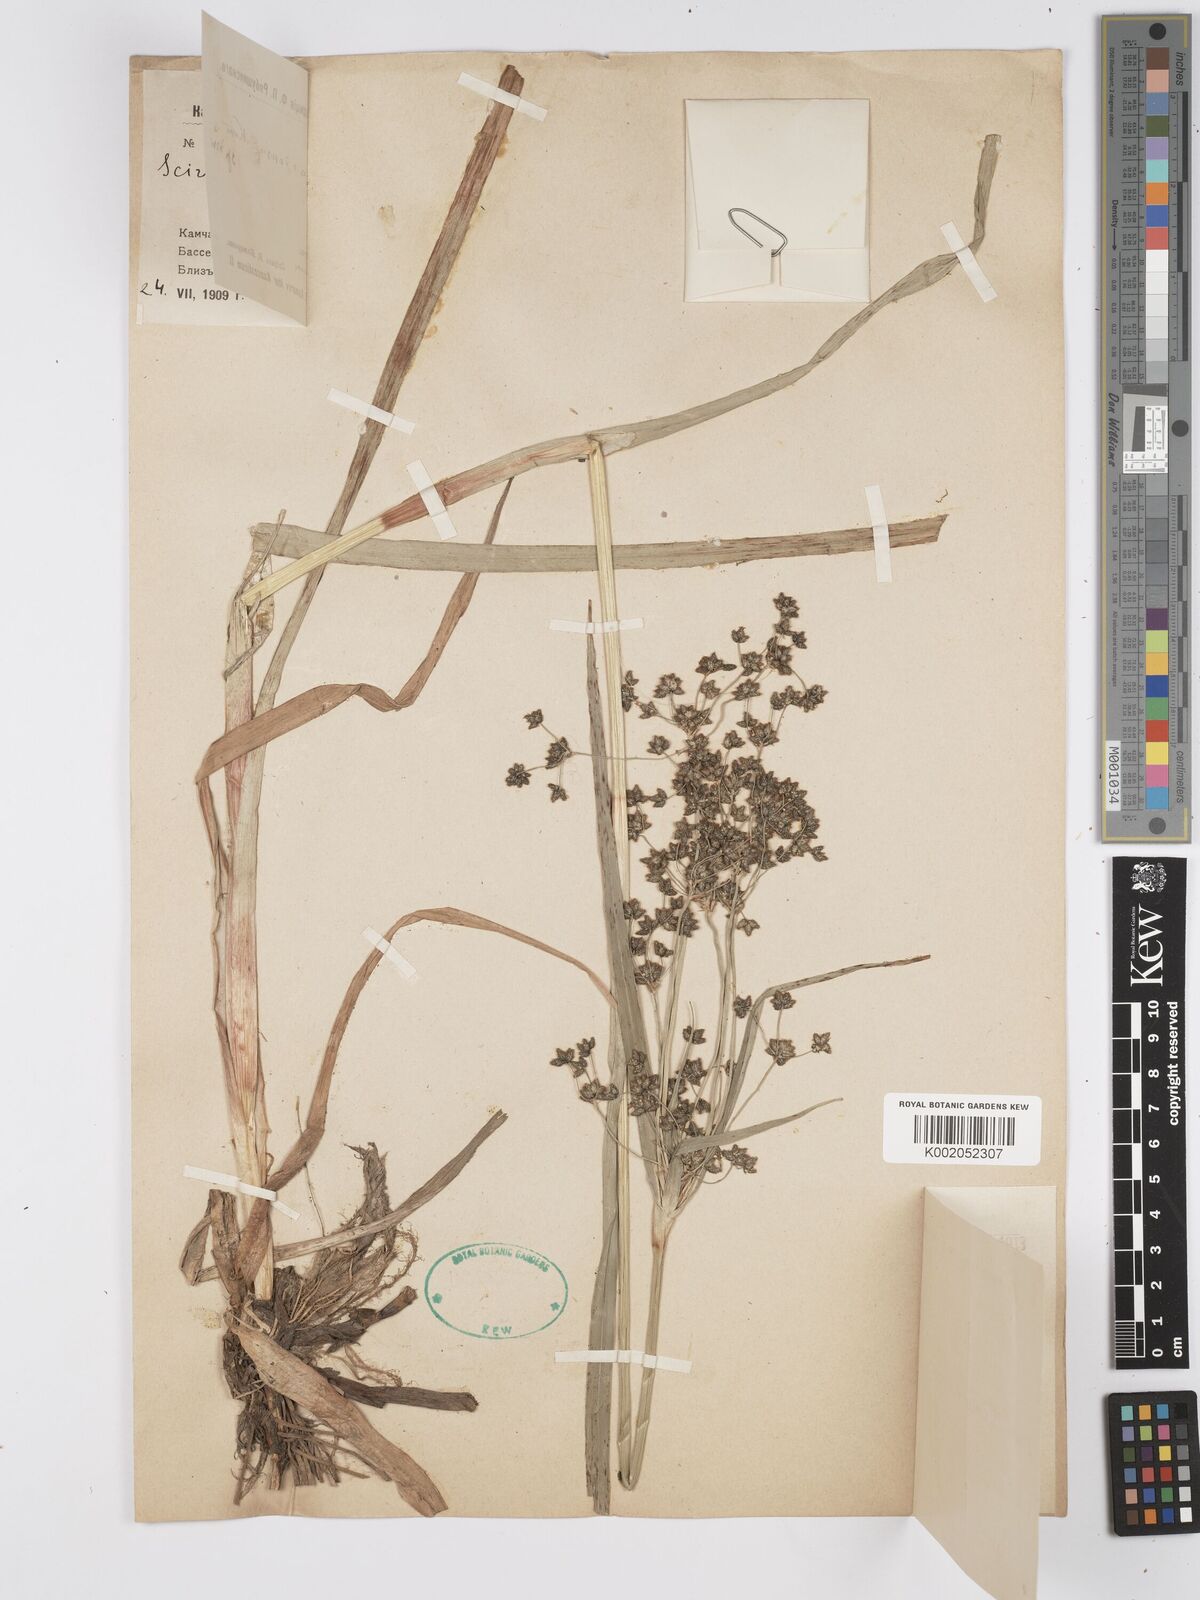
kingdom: Plantae
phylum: Tracheophyta
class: Liliopsida
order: Poales
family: Cyperaceae
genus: Scirpus
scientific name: Scirpus sylvaticus
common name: Wood club-rush
